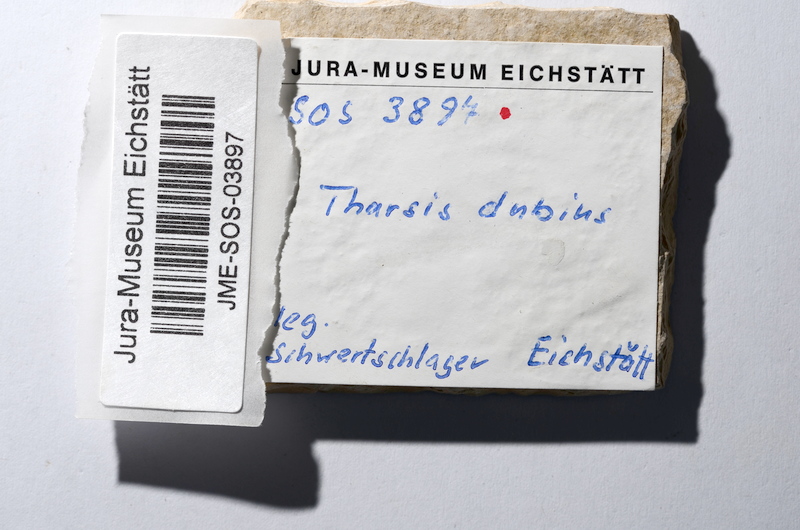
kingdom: Animalia
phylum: Chordata
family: Ascalaboidae
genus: Tharsis
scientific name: Tharsis dubius
